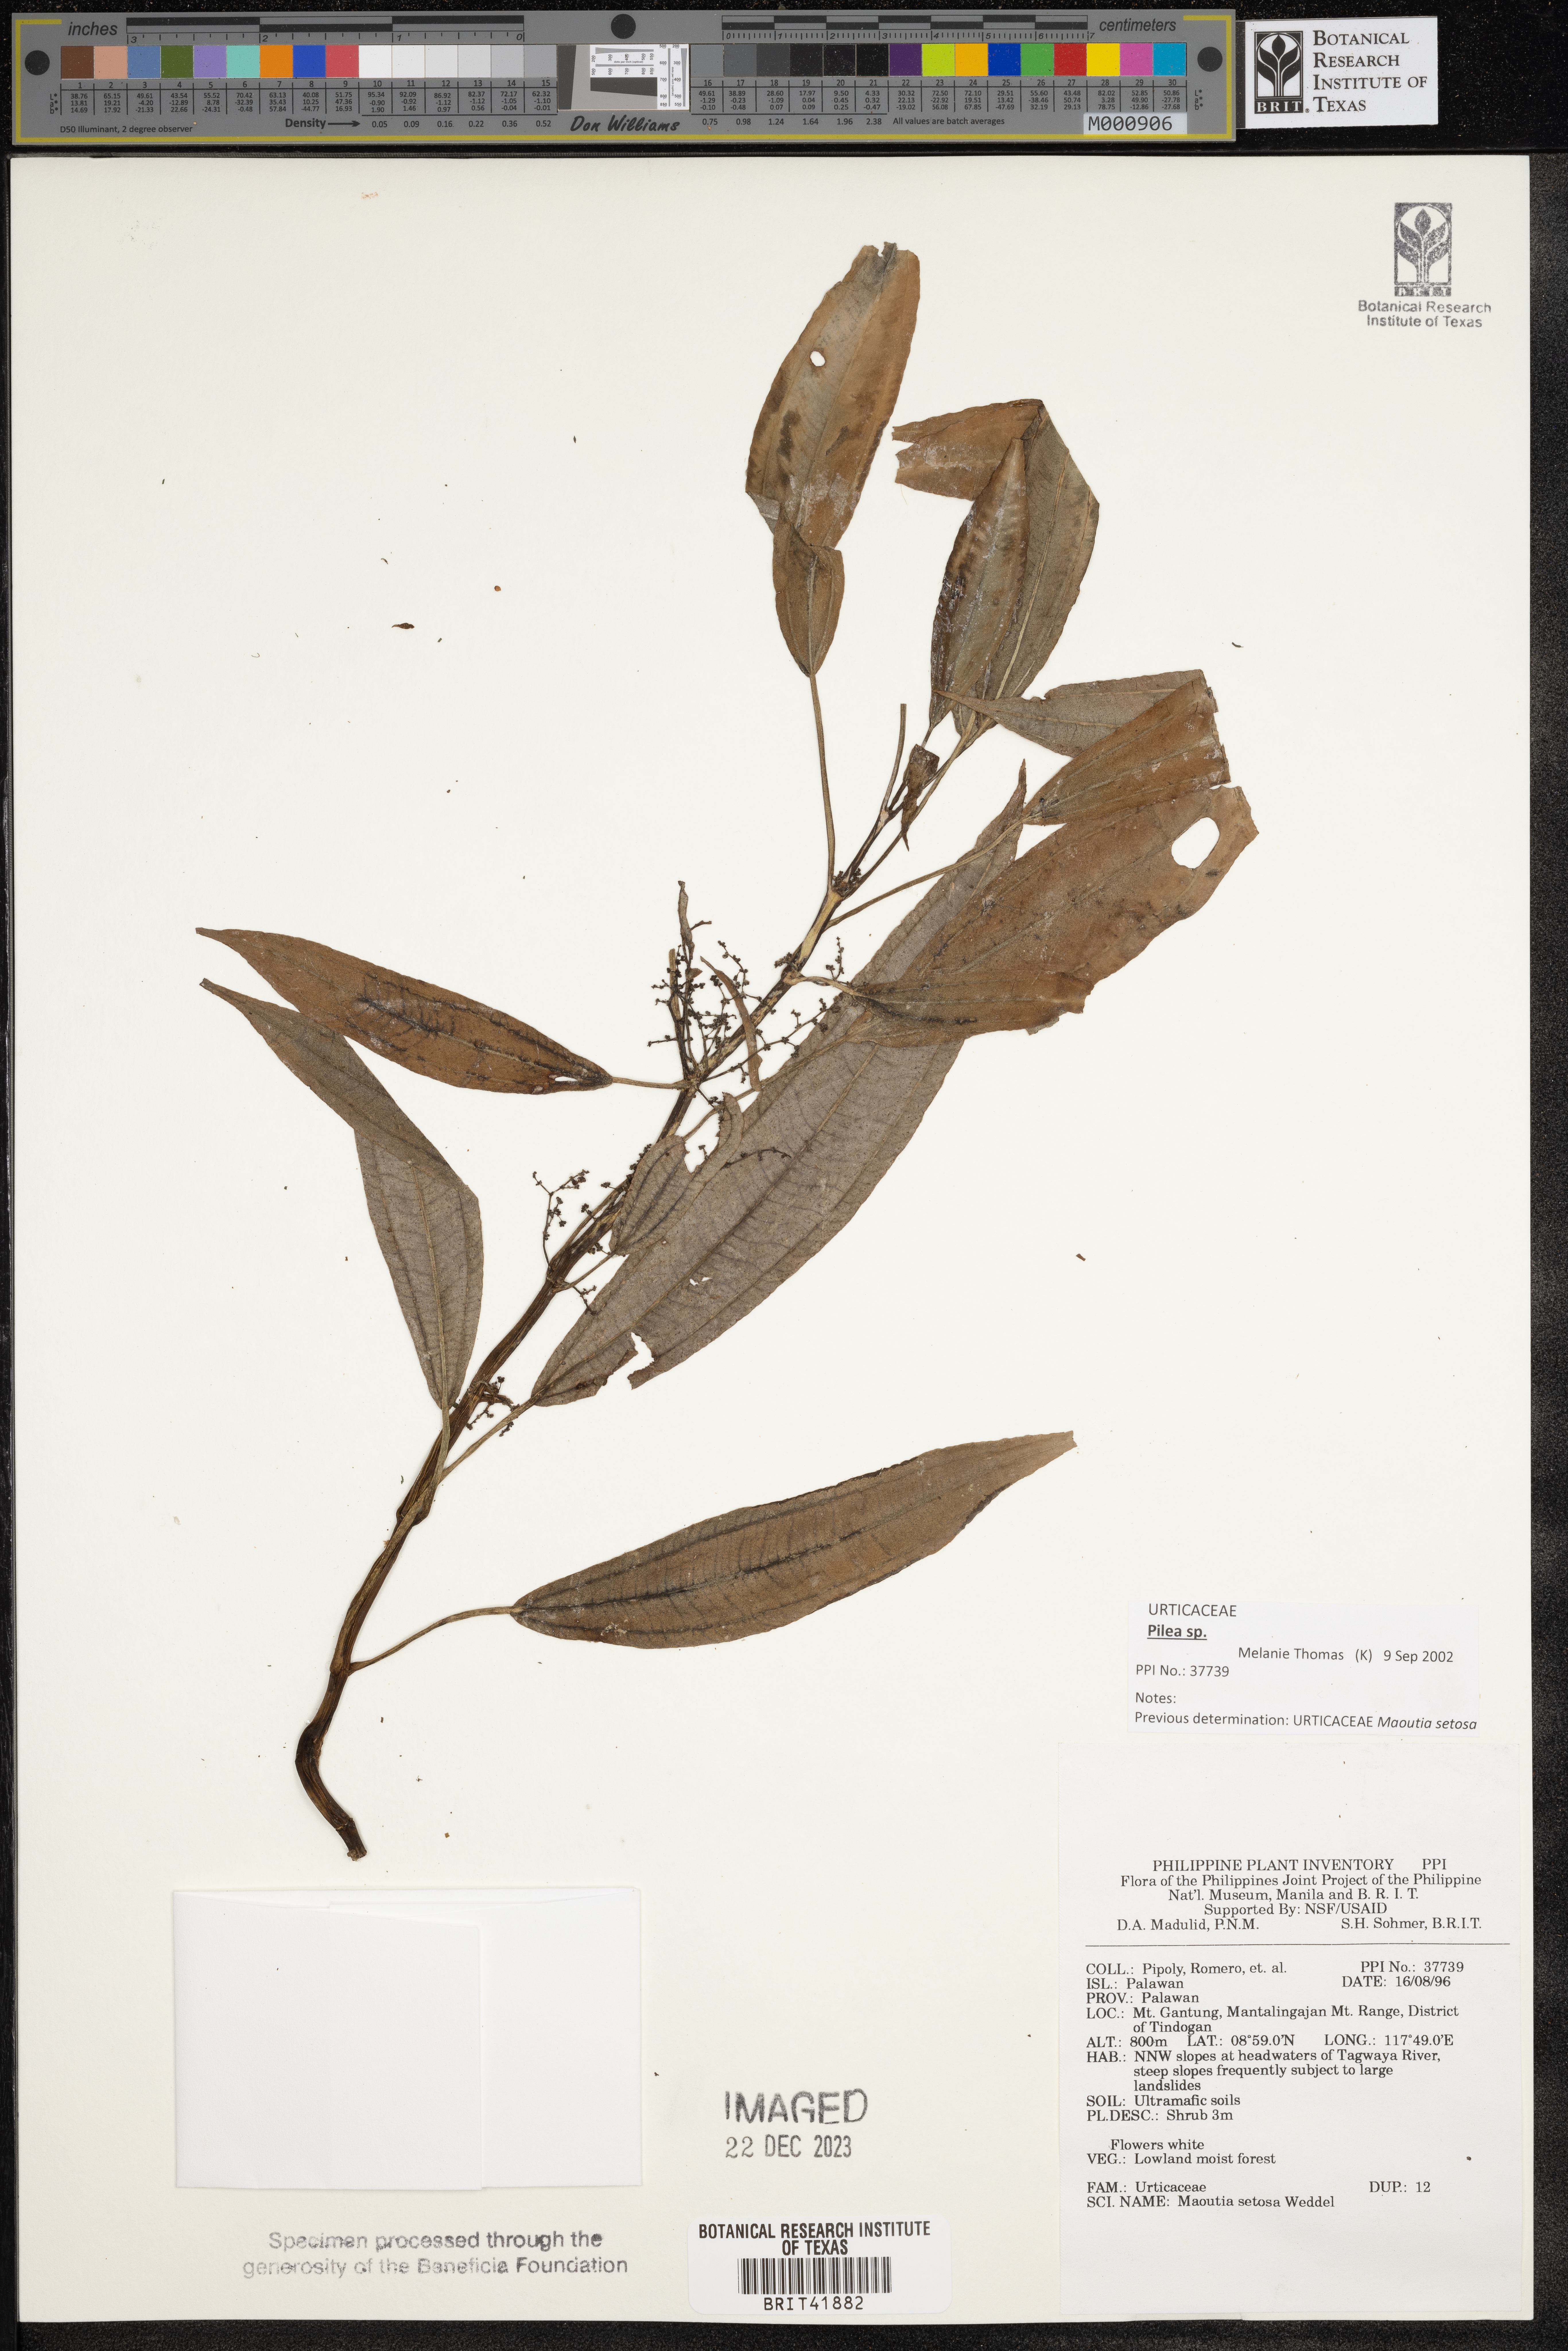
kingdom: Plantae
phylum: Tracheophyta
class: Magnoliopsida
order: Rosales
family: Urticaceae
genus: Maoutia
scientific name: Maoutia setosa
